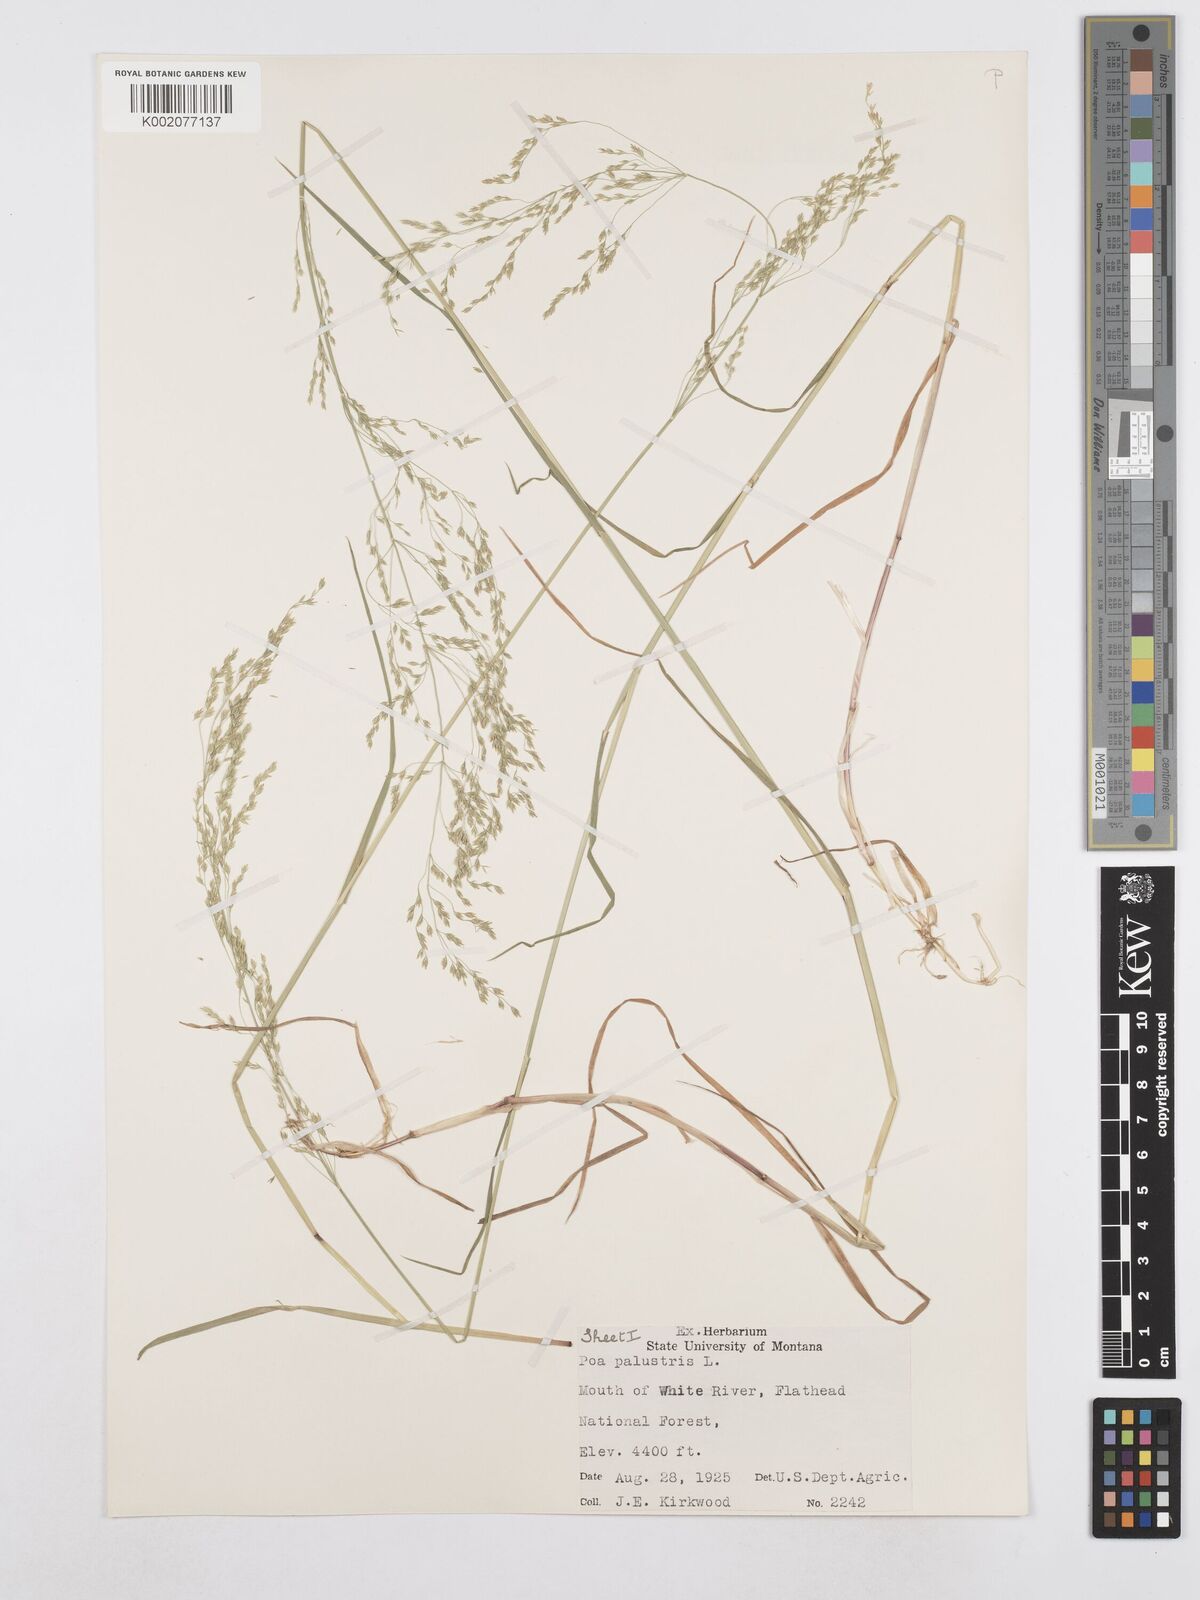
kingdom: Plantae
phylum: Tracheophyta
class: Liliopsida
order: Poales
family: Poaceae
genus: Poa
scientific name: Poa palustris
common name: Swamp meadow-grass
